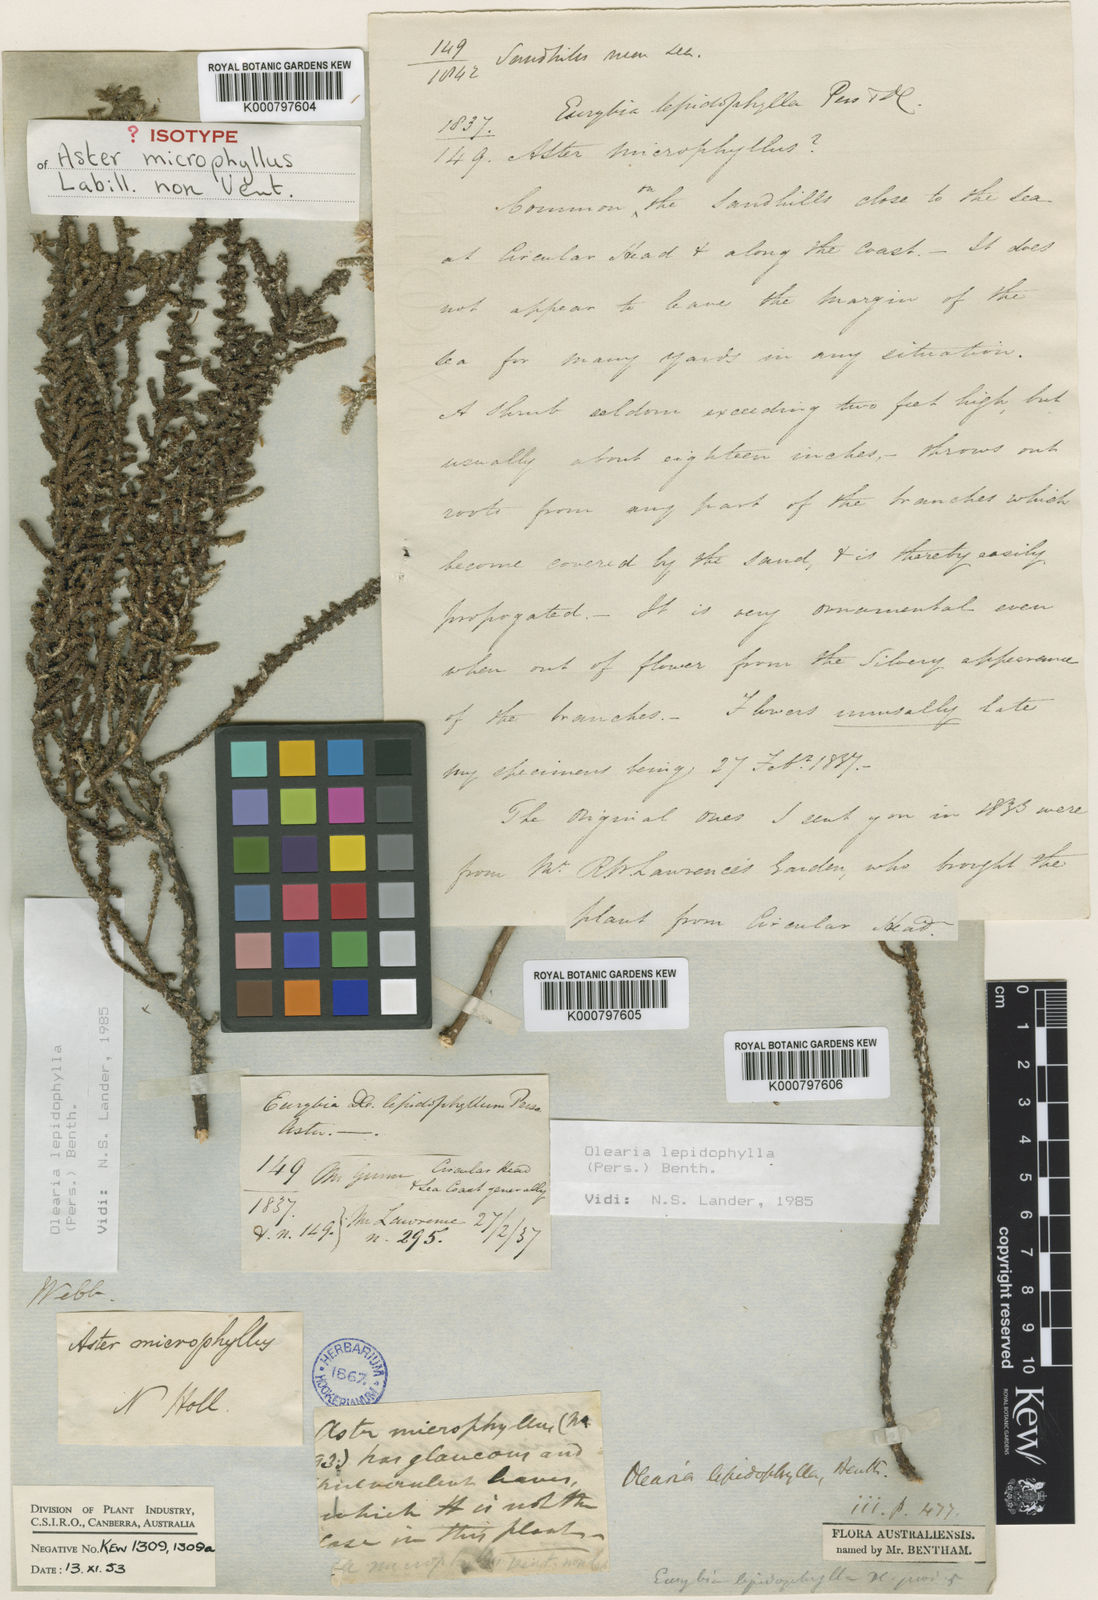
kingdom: Plantae
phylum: Tracheophyta
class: Magnoliopsida
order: Asterales
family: Asteraceae
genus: Olearia
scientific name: Olearia lepidophylla
